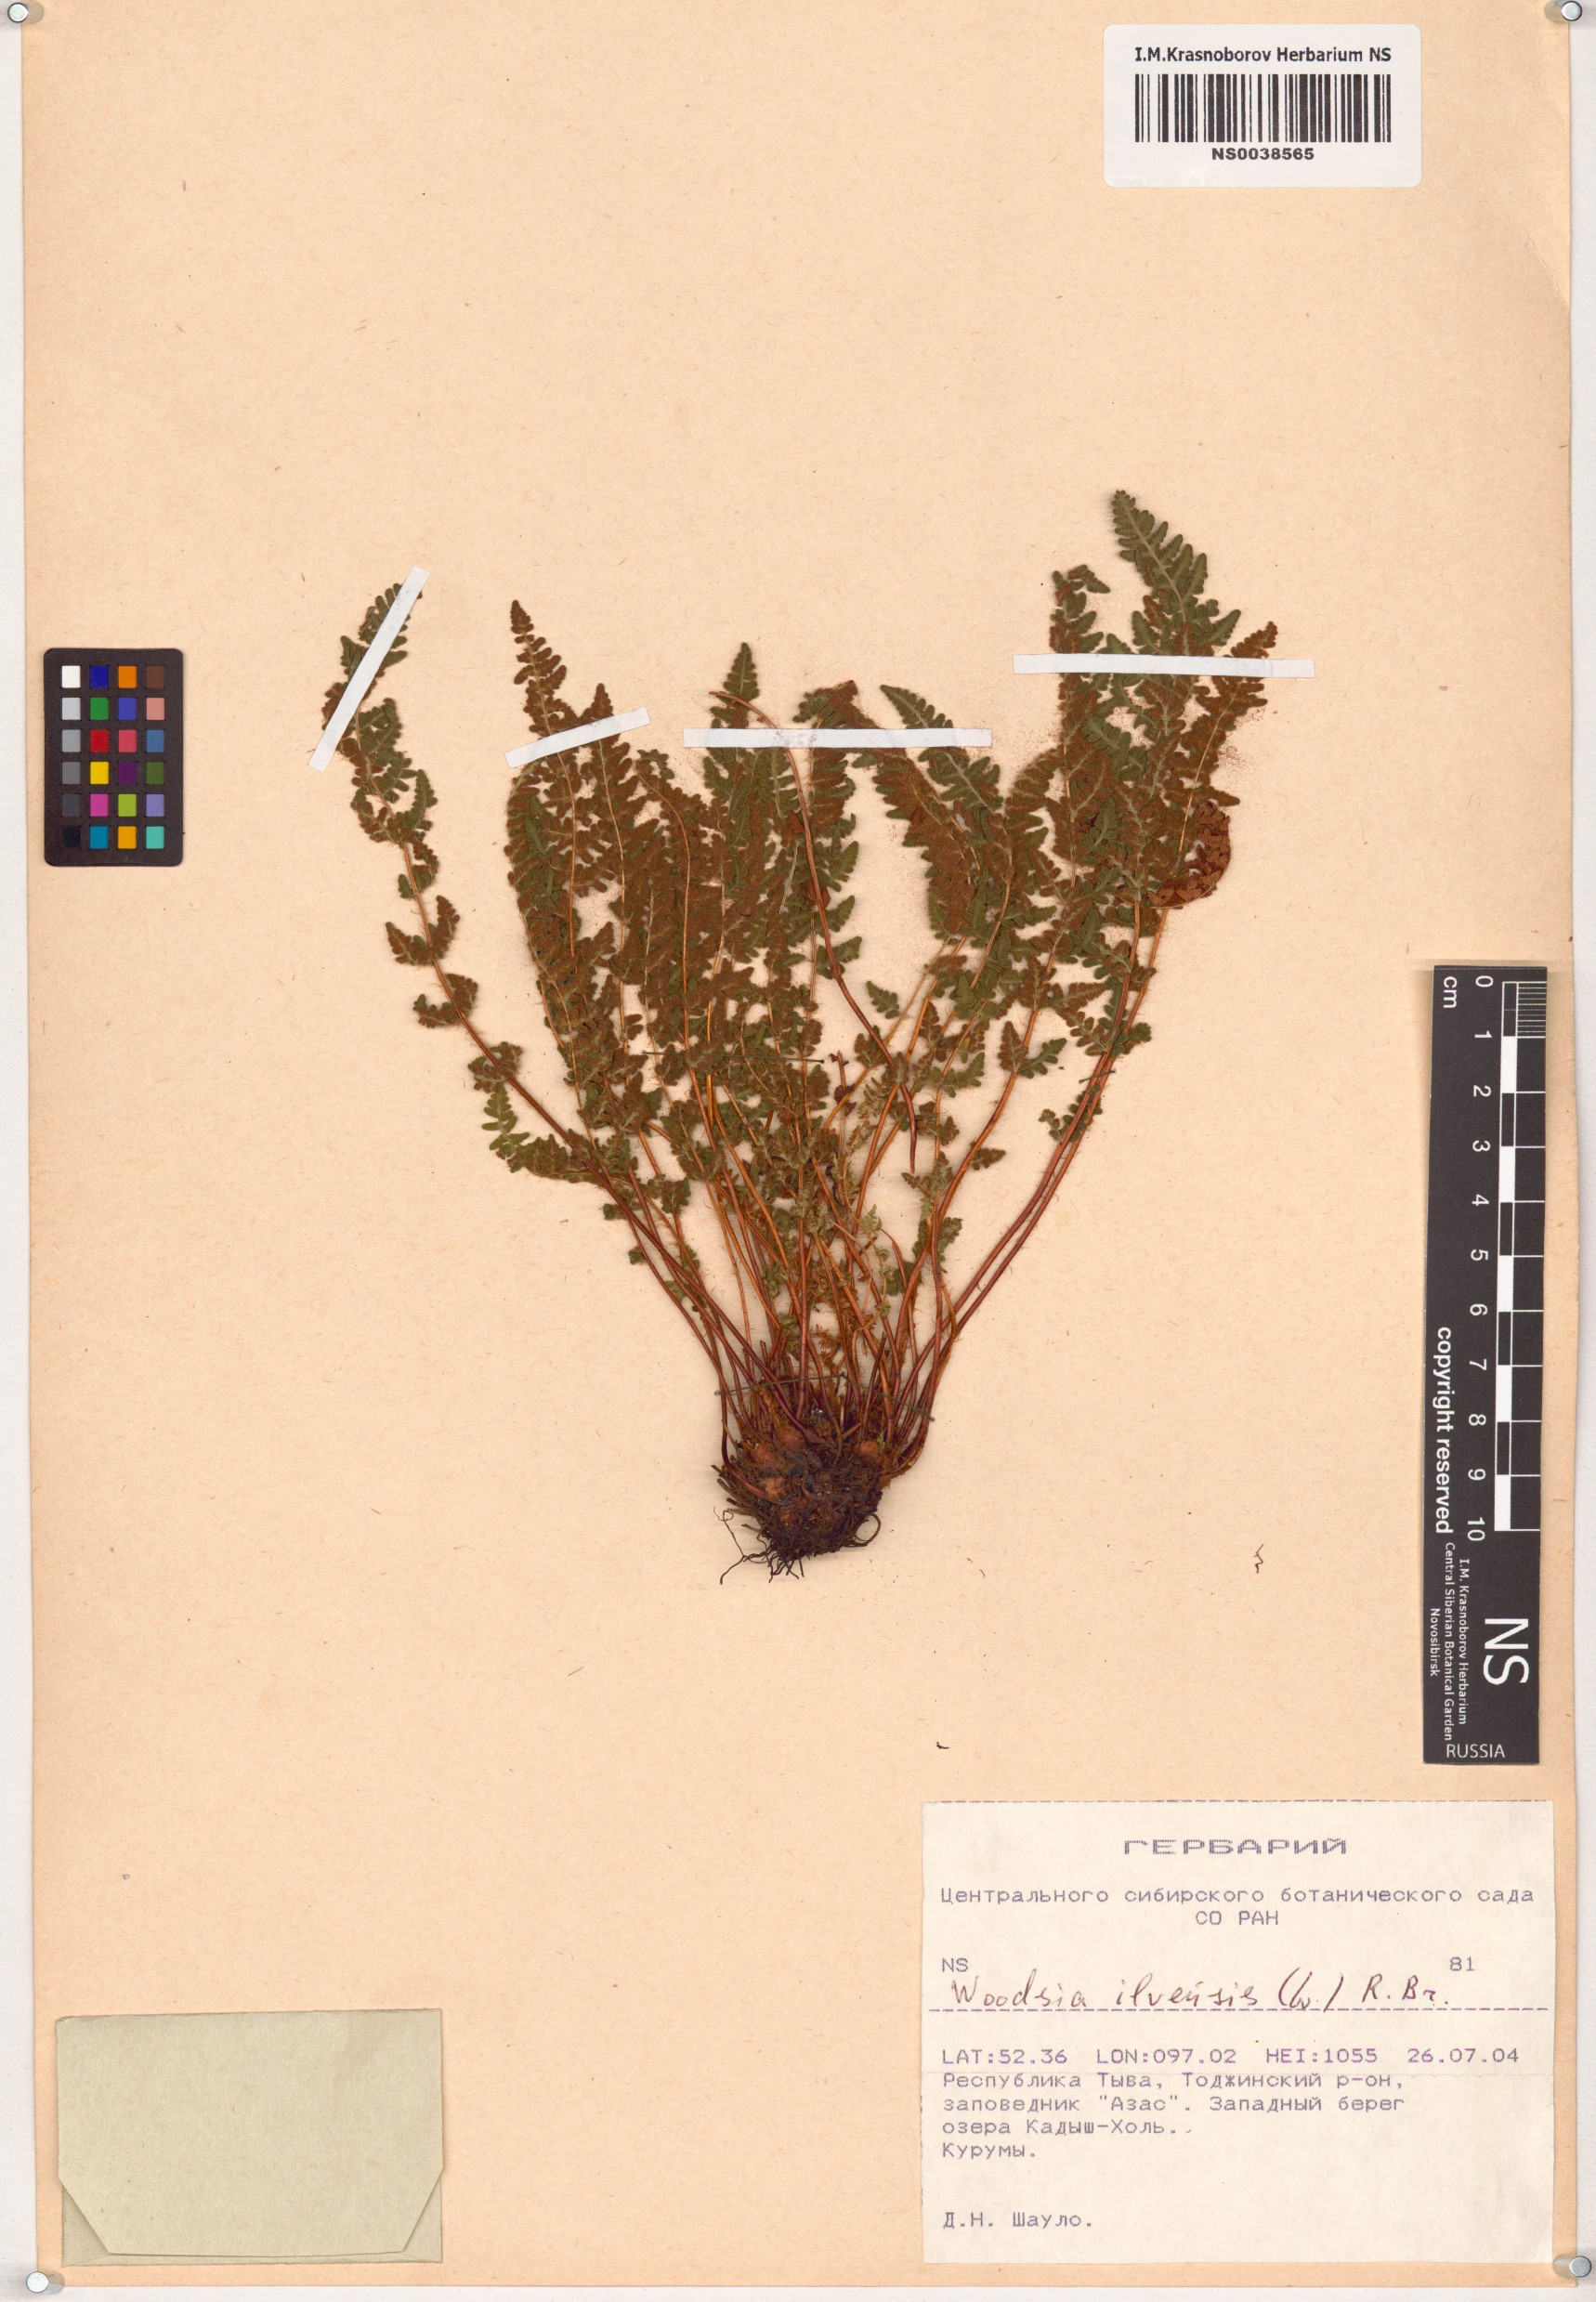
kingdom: Plantae
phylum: Tracheophyta
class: Polypodiopsida
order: Polypodiales
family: Woodsiaceae
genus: Woodsia
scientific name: Woodsia ilvensis
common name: Fragrant woodsia
